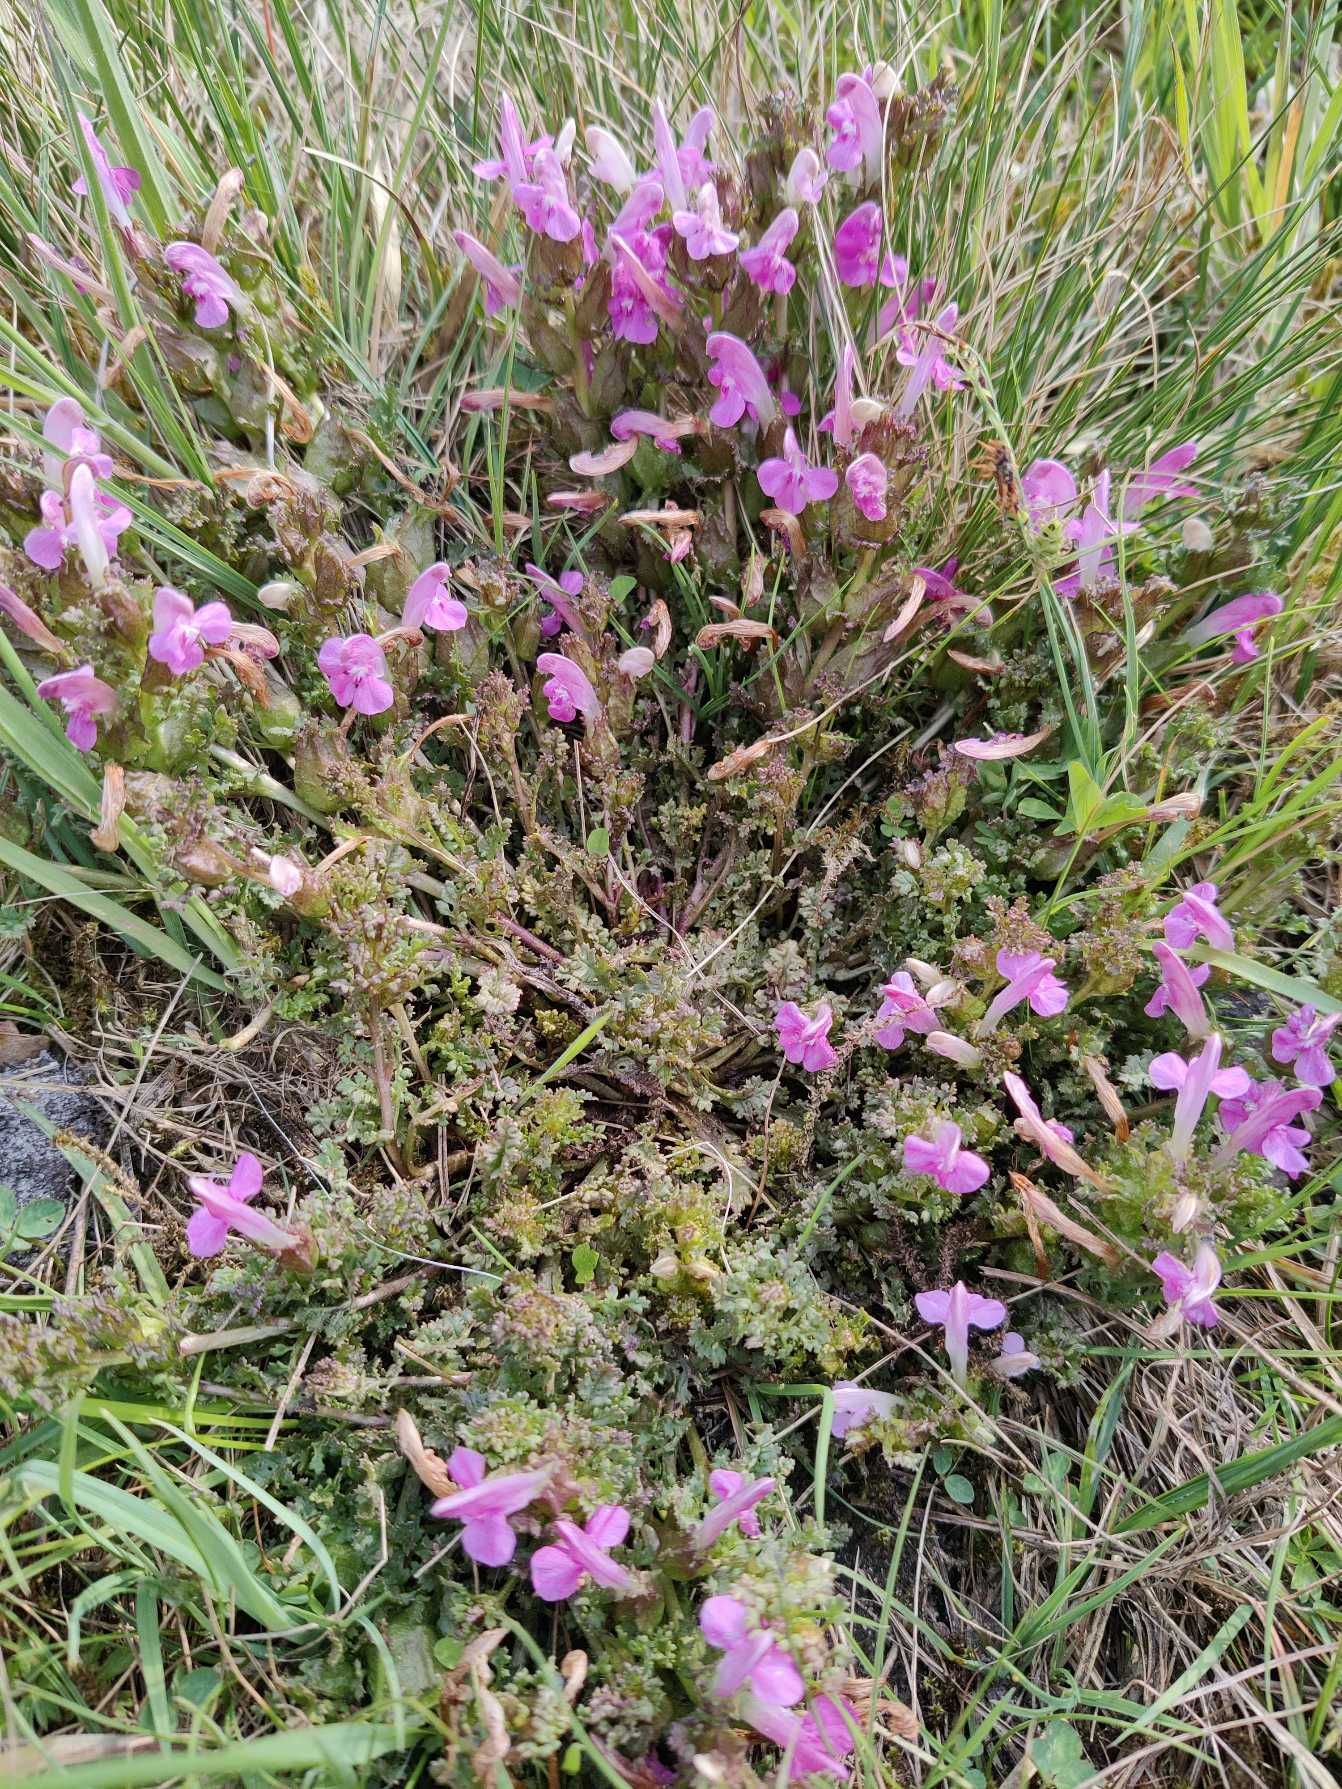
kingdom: Plantae
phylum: Tracheophyta
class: Magnoliopsida
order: Lamiales
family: Orobanchaceae
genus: Pedicularis
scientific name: Pedicularis sylvatica
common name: Mose-troldurt
